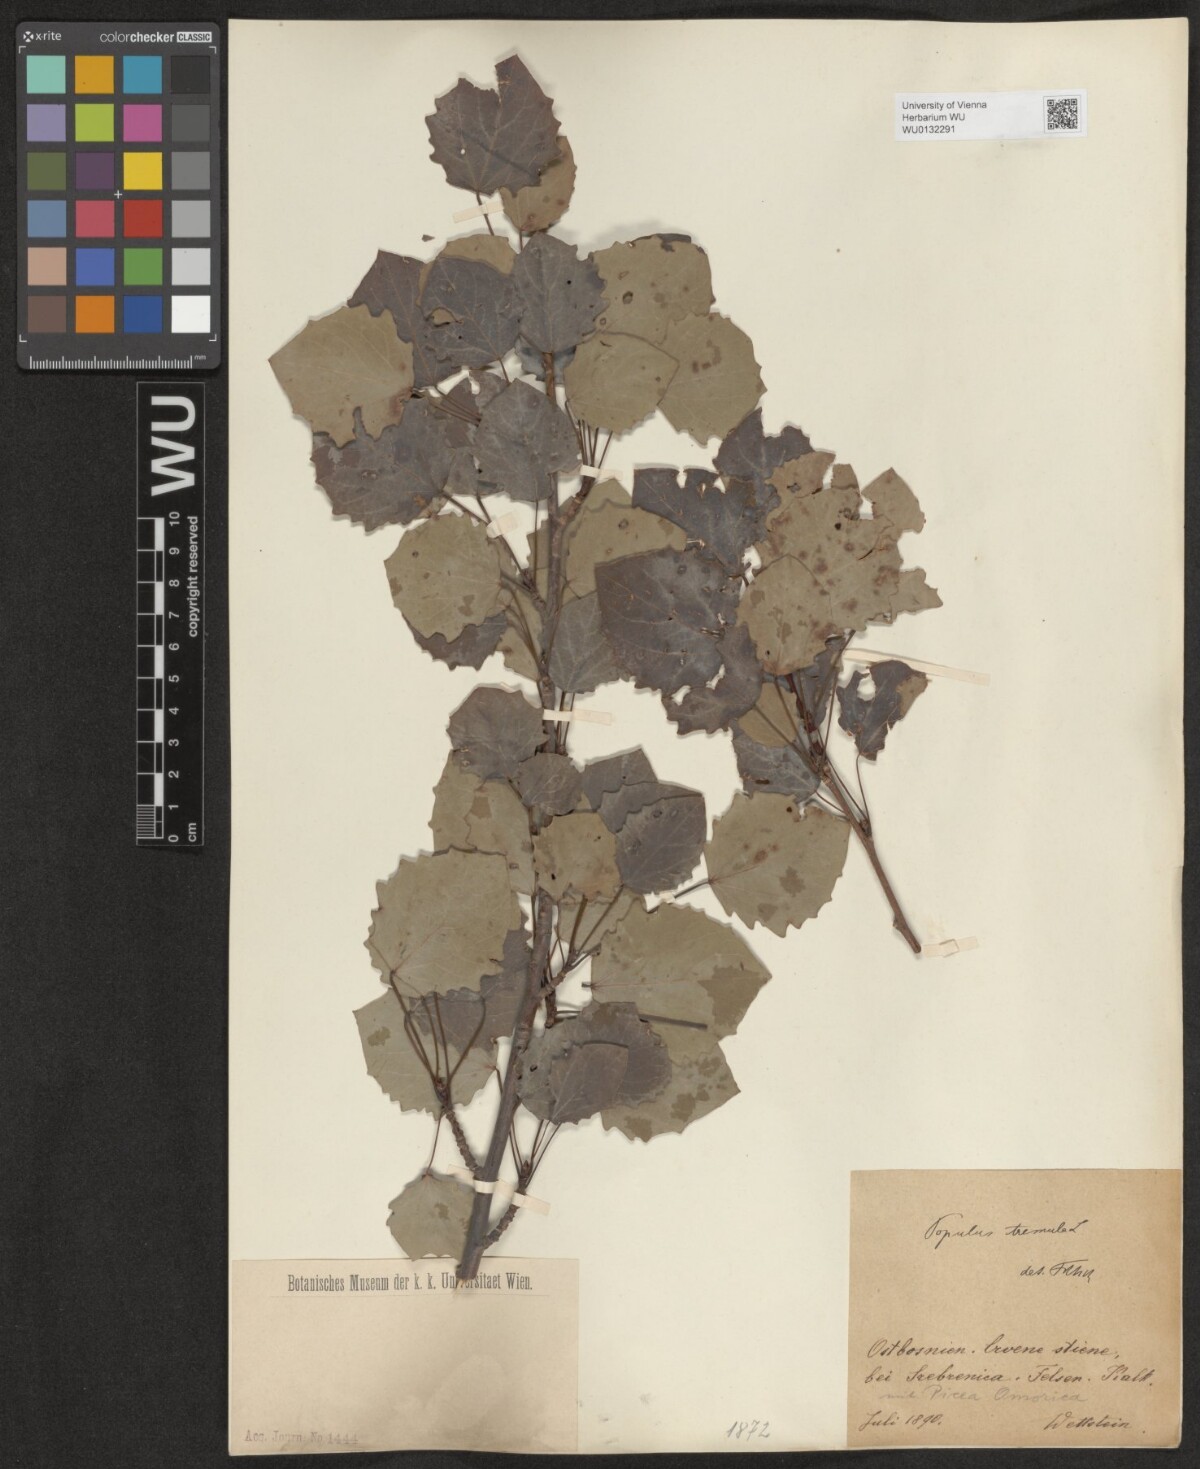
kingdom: Plantae
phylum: Tracheophyta
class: Magnoliopsida
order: Malpighiales
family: Salicaceae
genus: Populus
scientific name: Populus tremula
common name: European aspen
